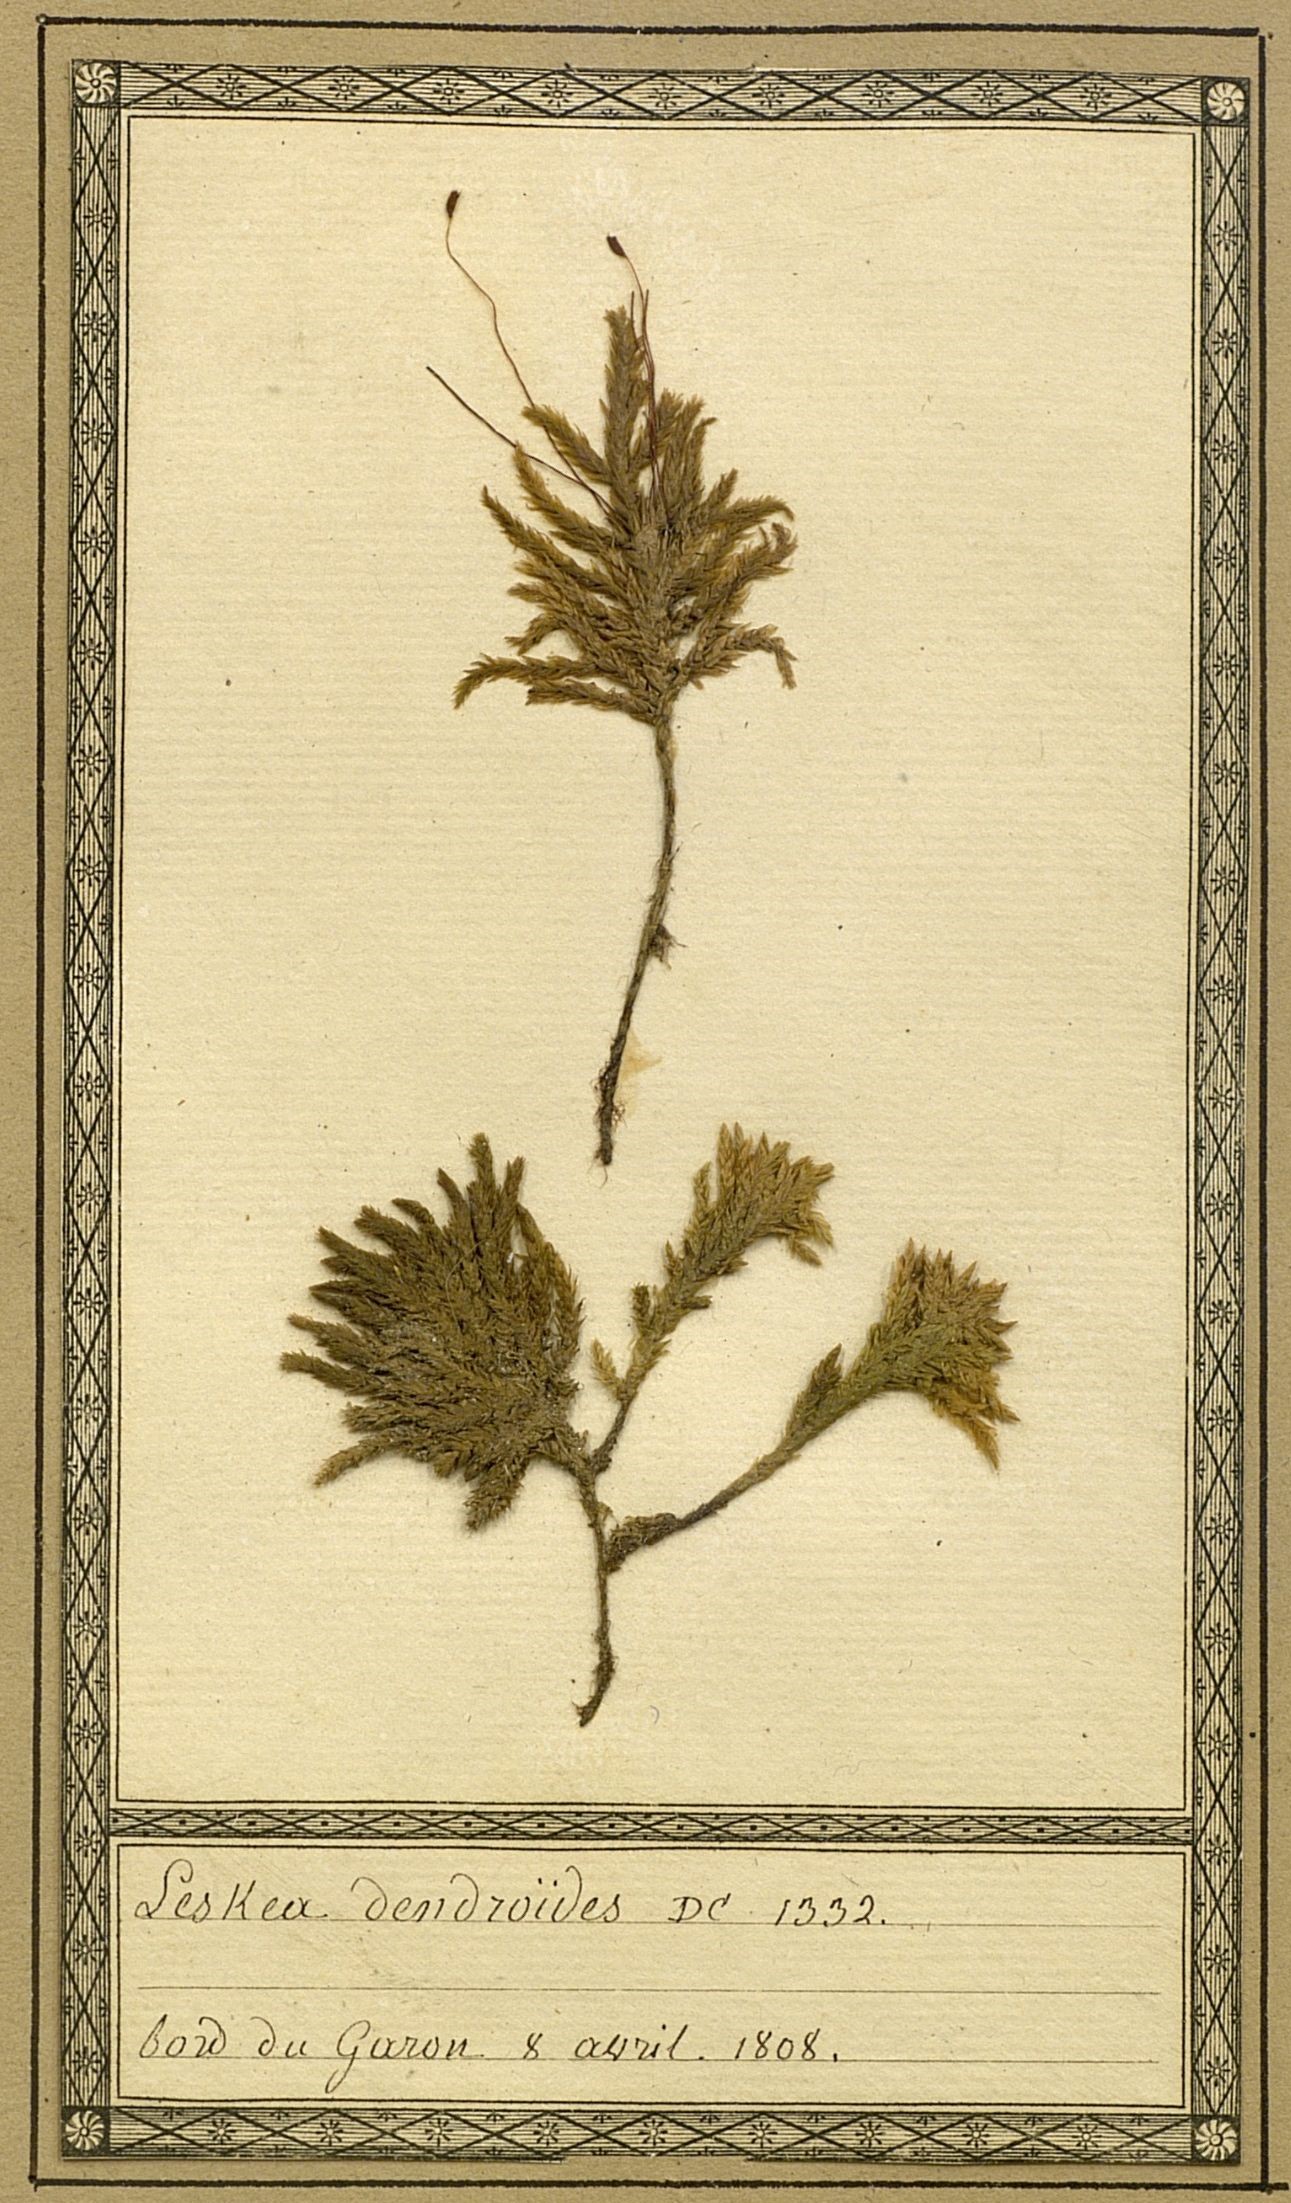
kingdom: Plantae
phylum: Bryophyta
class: Bryopsida
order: Hypnales
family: Climaciaceae
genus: Climacium
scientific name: Climacium dendroides
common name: Northern tree moss
